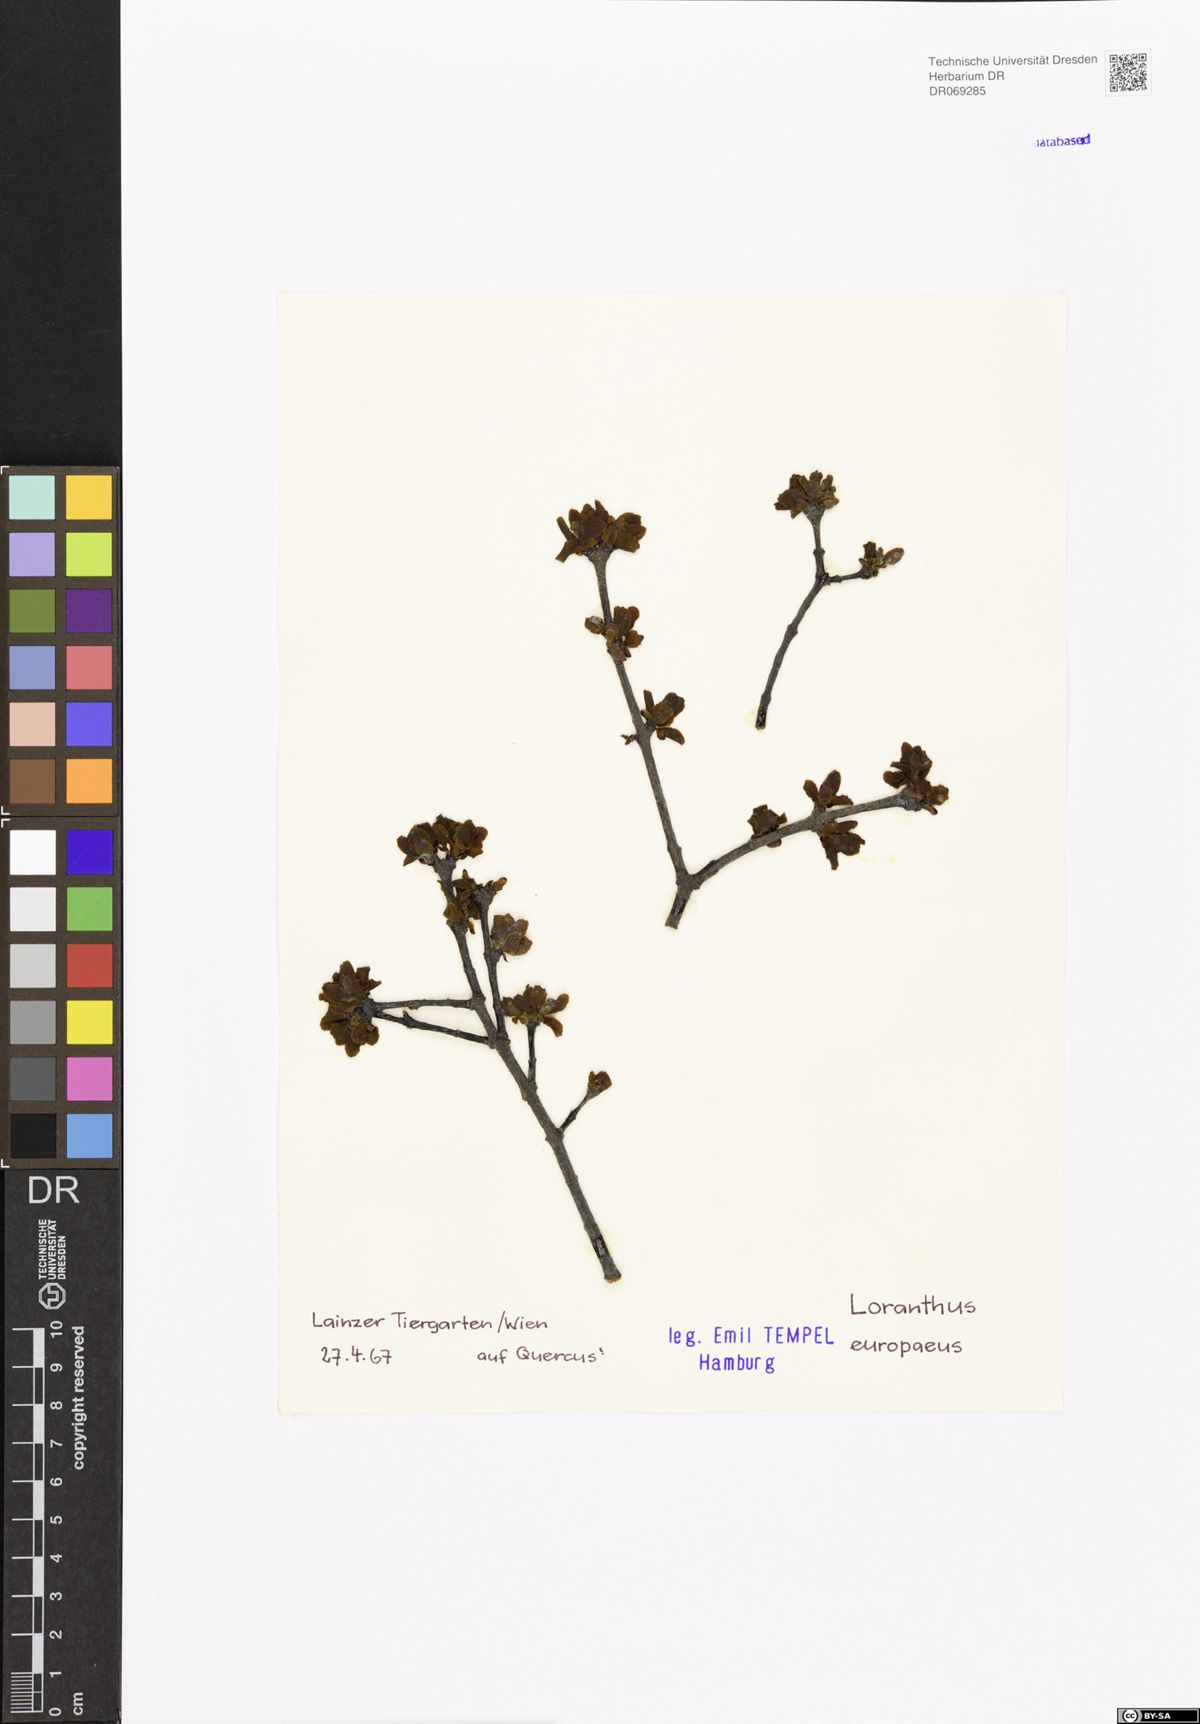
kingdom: Plantae
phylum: Tracheophyta
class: Magnoliopsida
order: Santalales
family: Loranthaceae
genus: Loranthus
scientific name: Loranthus europaeus
